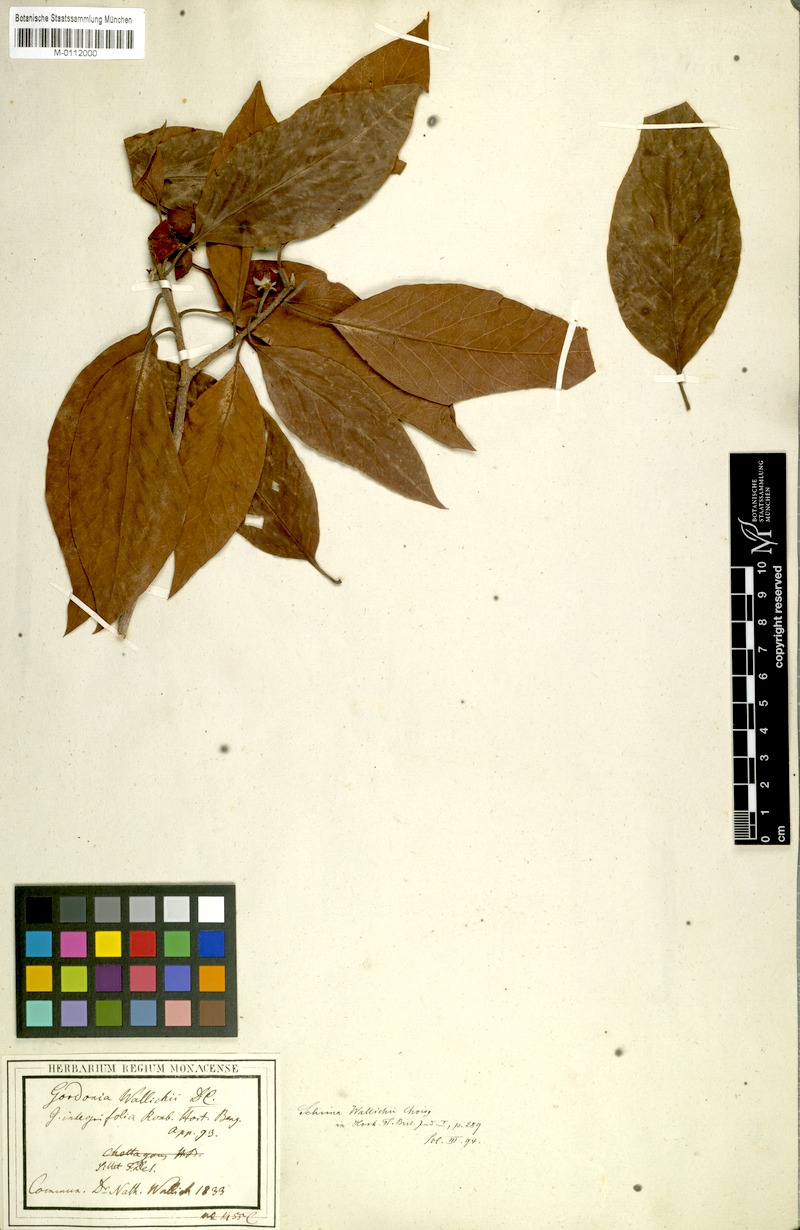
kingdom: Plantae
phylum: Tracheophyta
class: Magnoliopsida
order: Ericales
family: Theaceae
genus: Schima
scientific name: Schima wallichii
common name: Schima
